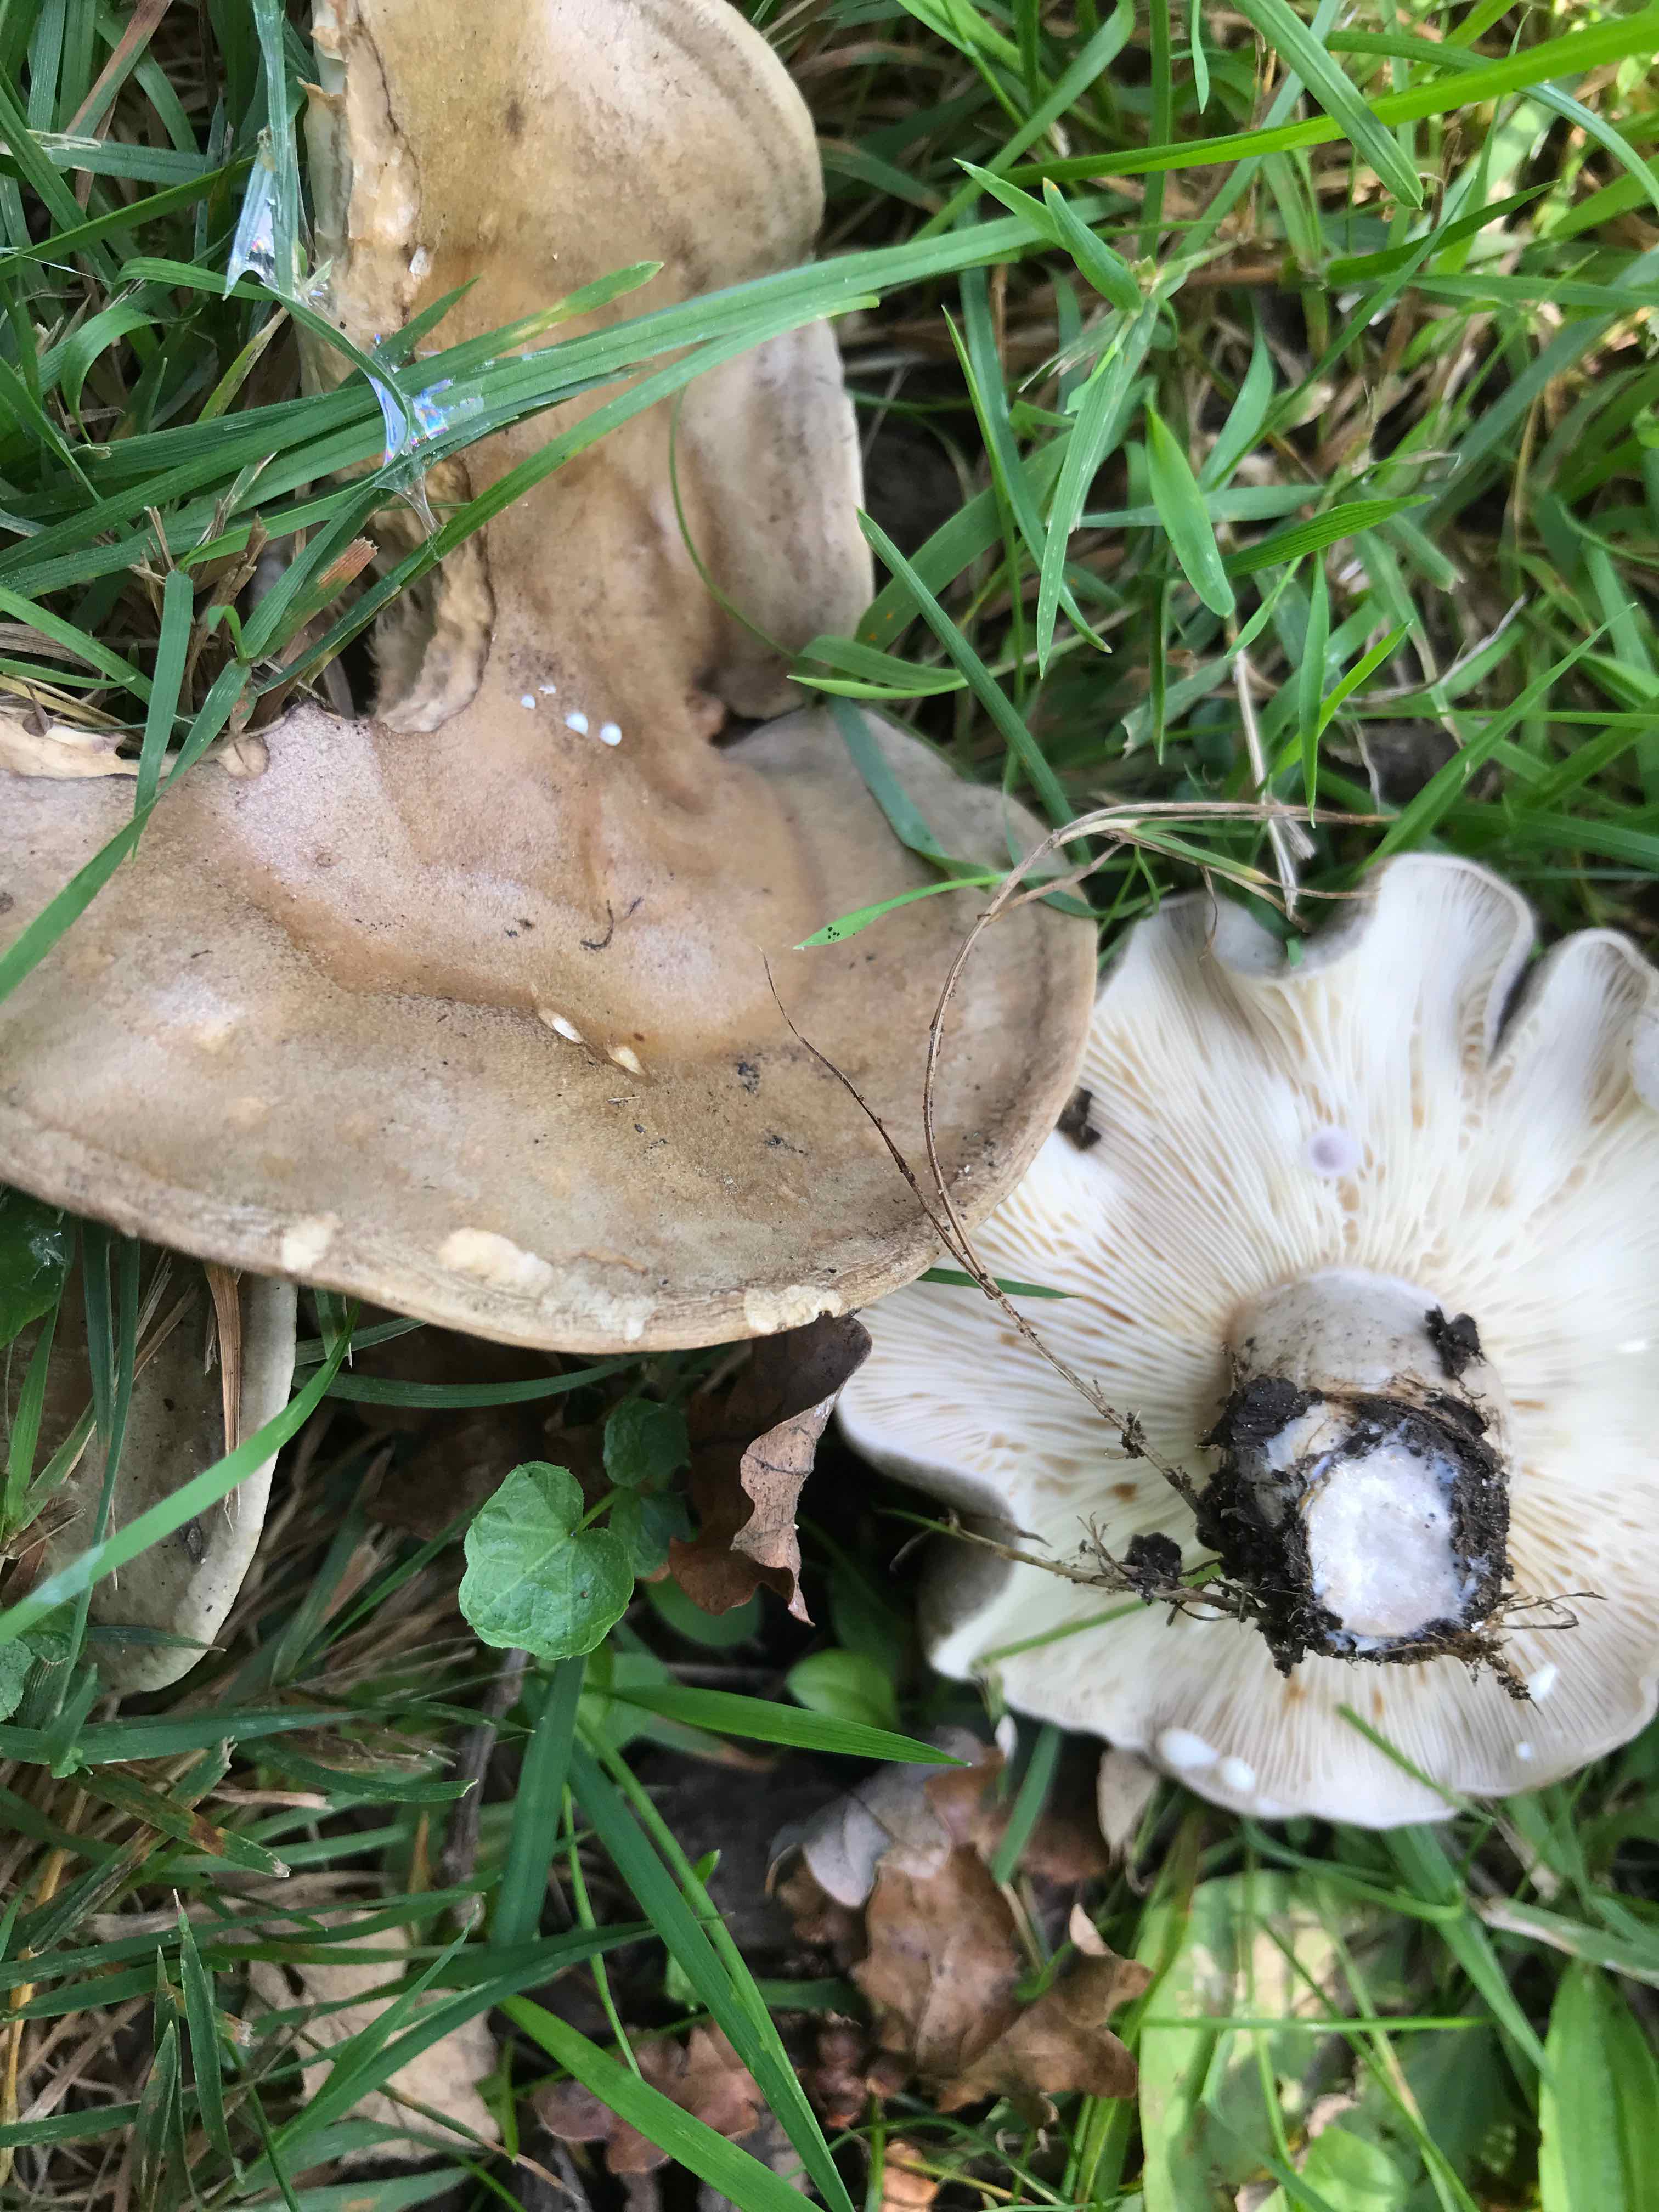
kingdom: Fungi
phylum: Basidiomycota
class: Agaricomycetes
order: Russulales
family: Russulaceae
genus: Lactarius
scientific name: Lactarius fluens
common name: lysrandet mælkehat
